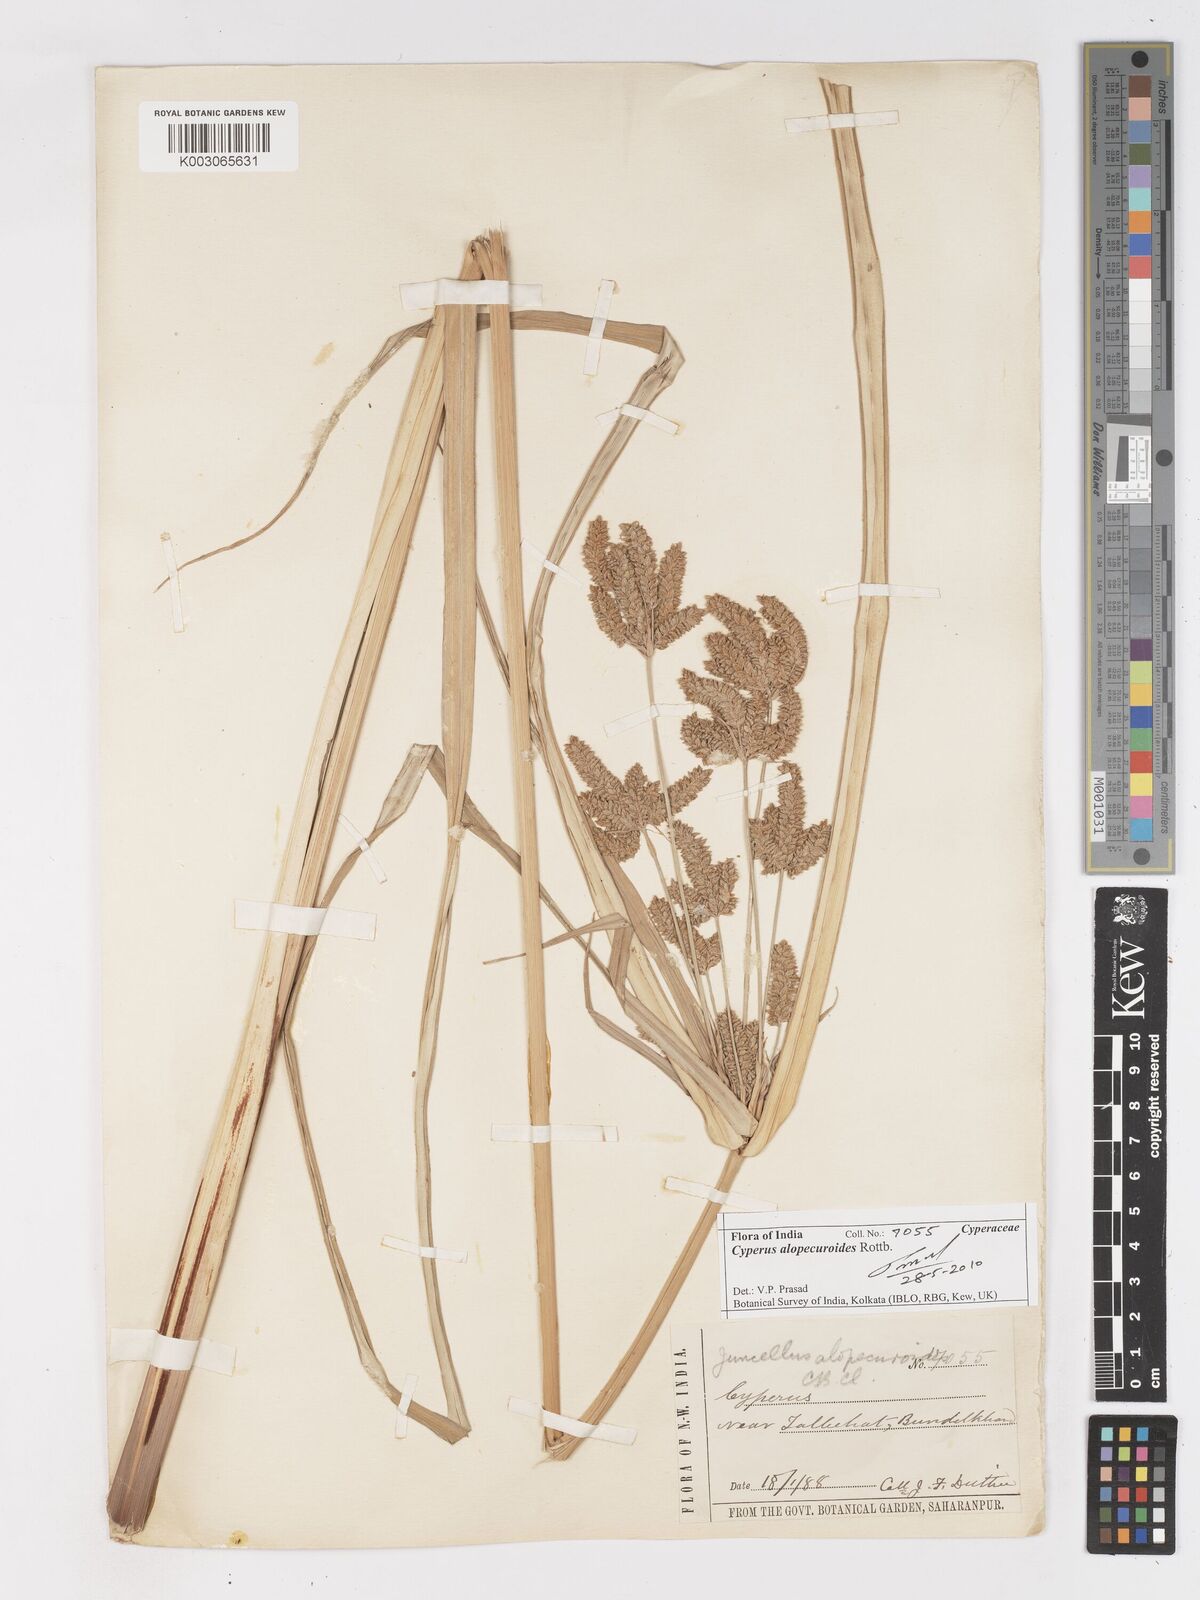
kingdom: Plantae
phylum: Tracheophyta
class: Liliopsida
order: Poales
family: Cyperaceae
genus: Cyperus
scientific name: Cyperus alopecuroides
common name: Foxtail flatsedge
